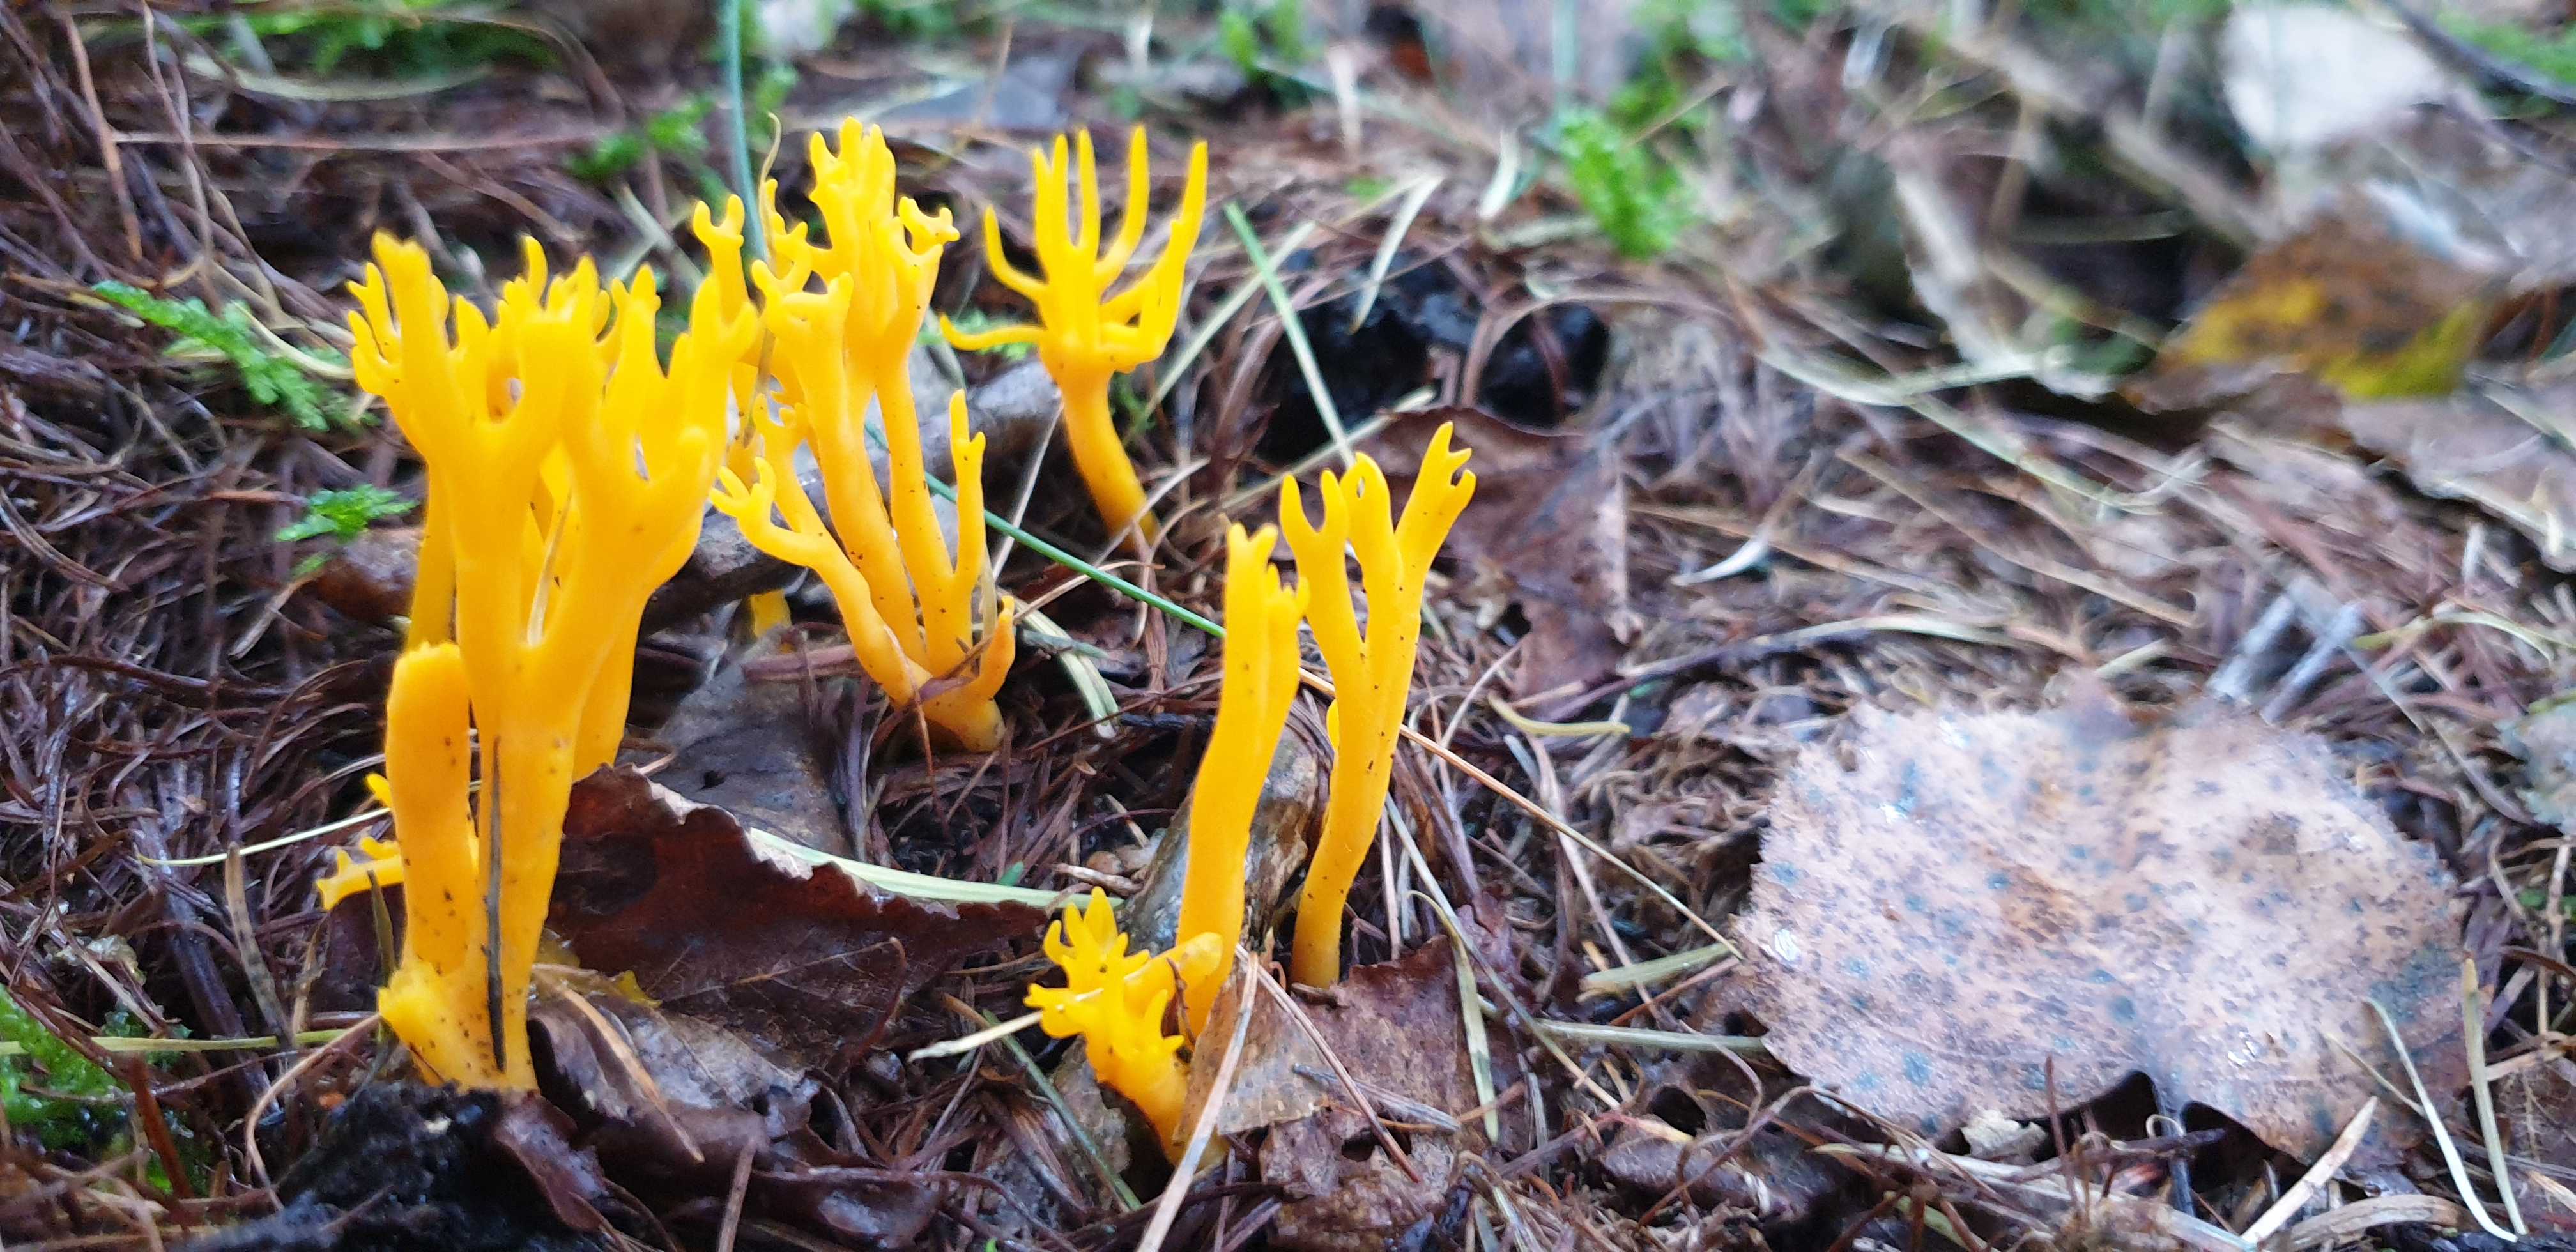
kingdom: Fungi
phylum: Basidiomycota
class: Dacrymycetes
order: Dacrymycetales
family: Dacrymycetaceae
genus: Calocera
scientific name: Calocera viscosa
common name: almindelig guldgaffel
